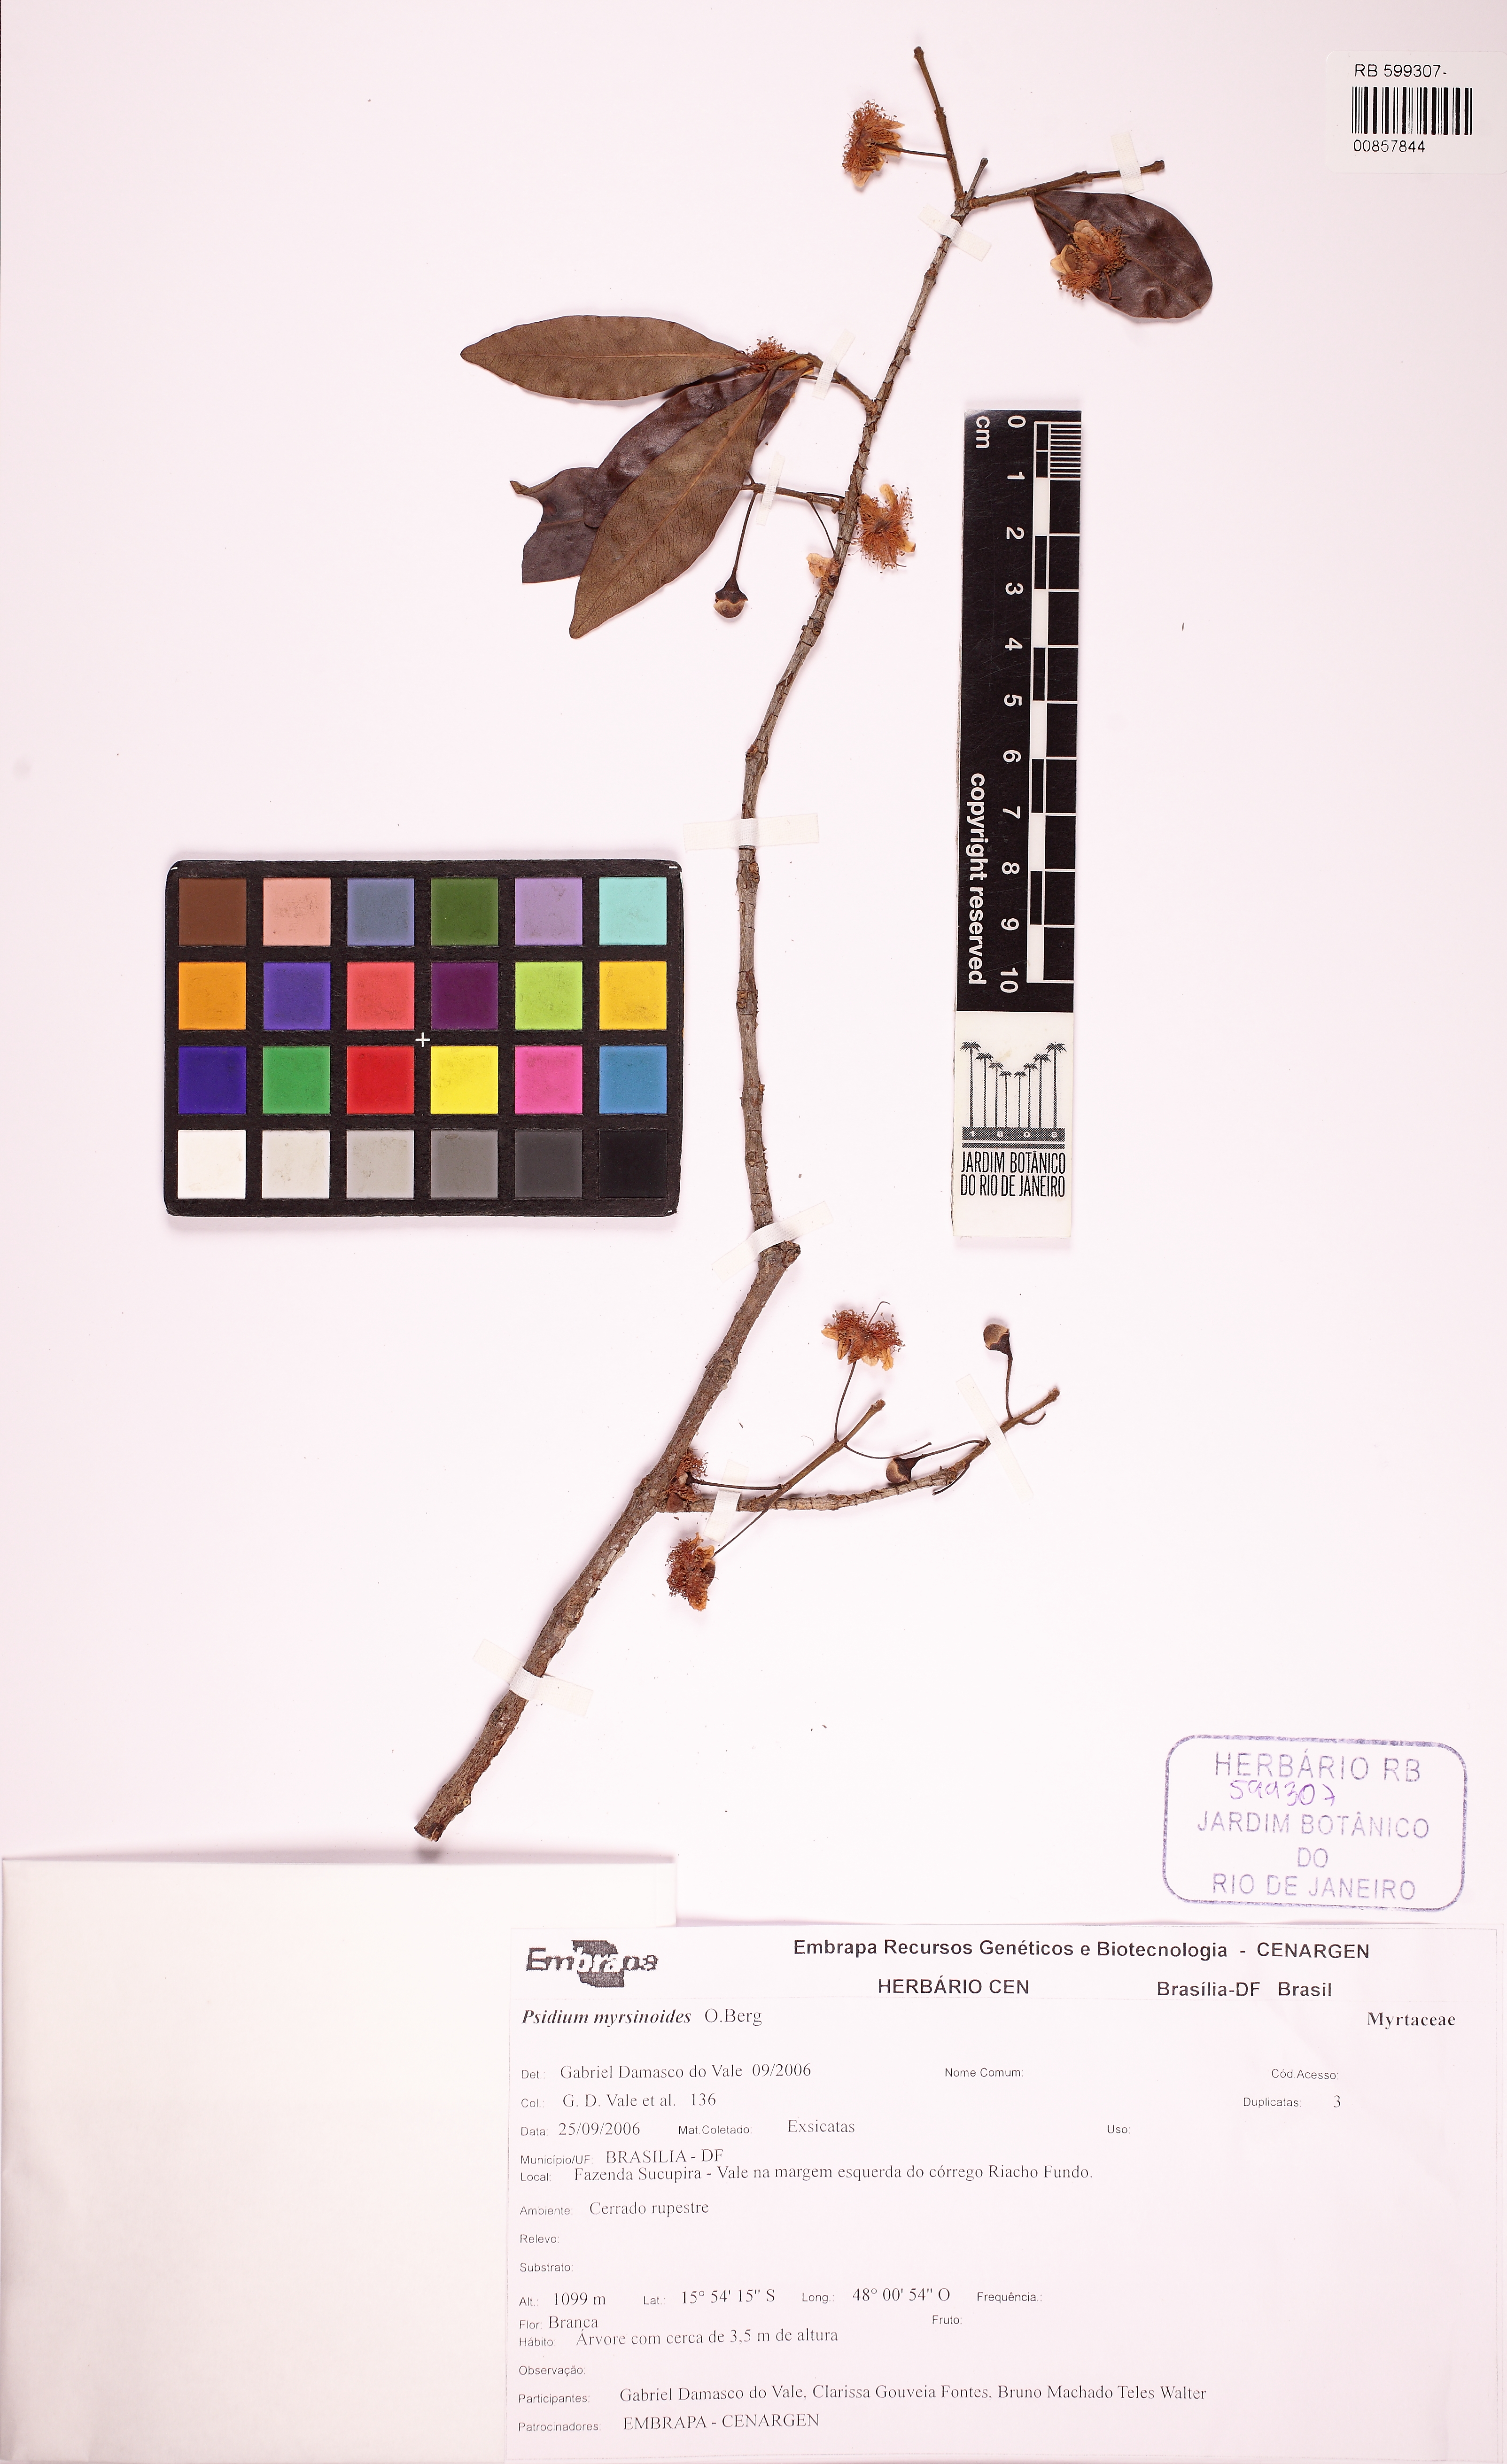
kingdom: Plantae
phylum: Tracheophyta
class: Magnoliopsida
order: Myrtales
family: Myrtaceae
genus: Psidium
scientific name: Psidium myrtoides
